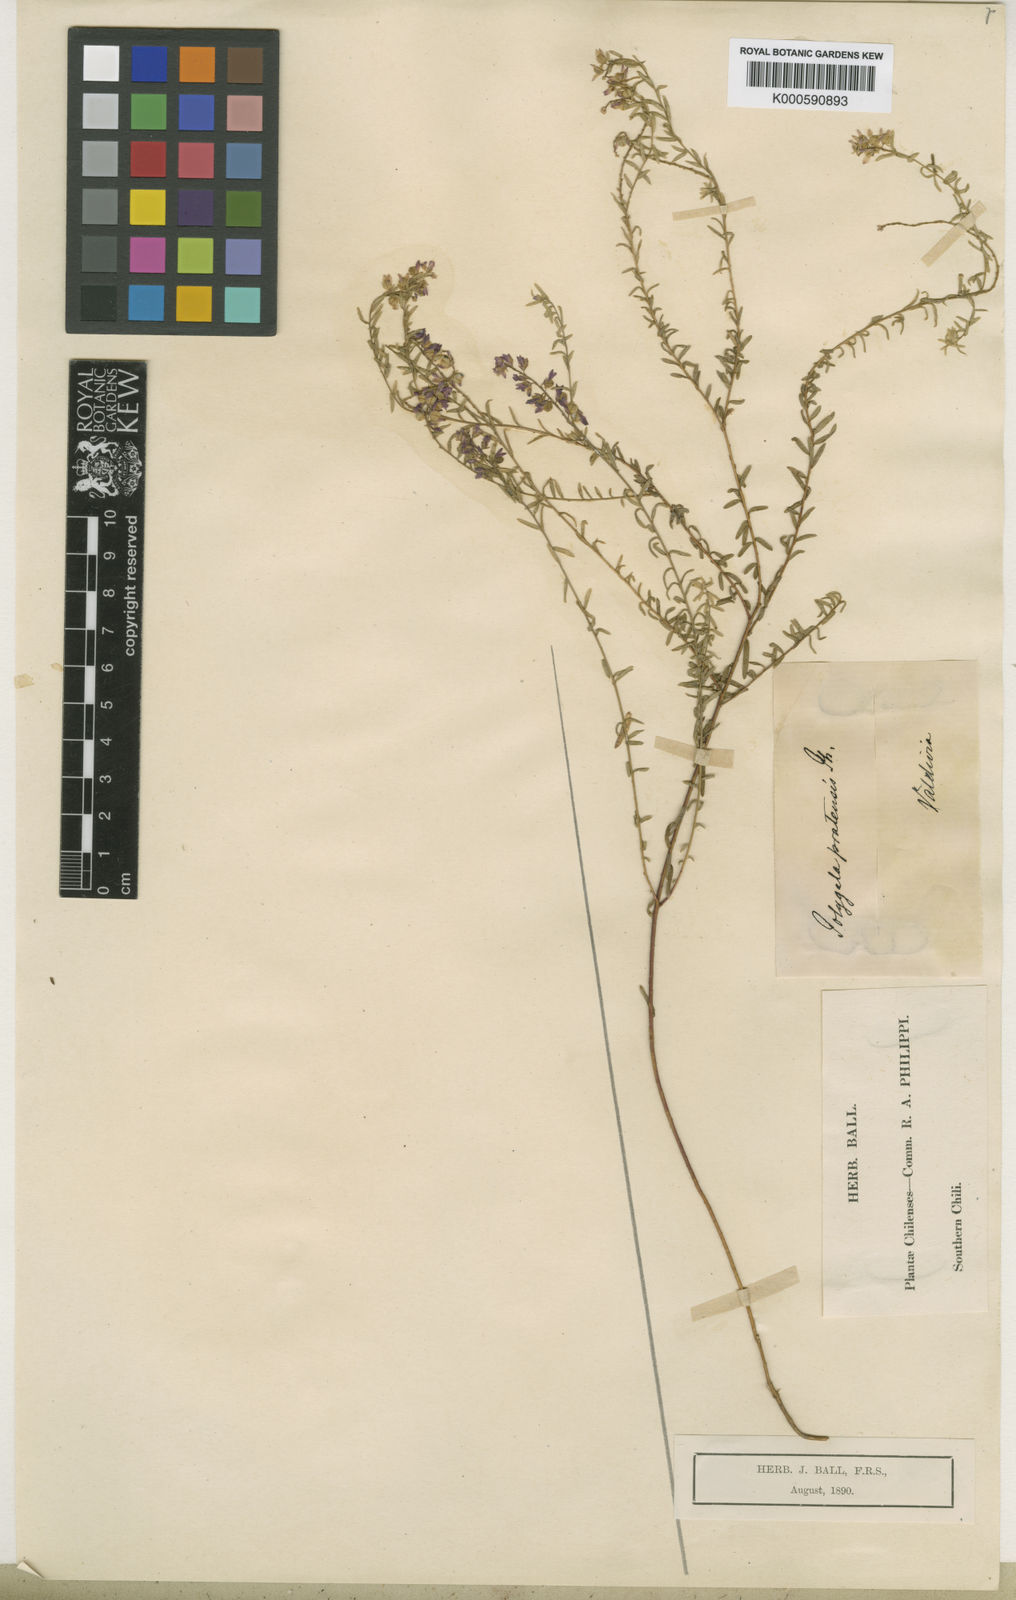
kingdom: Plantae
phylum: Tracheophyta
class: Magnoliopsida
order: Fabales
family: Polygalaceae
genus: Polygala
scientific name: Polygala gnidioides
